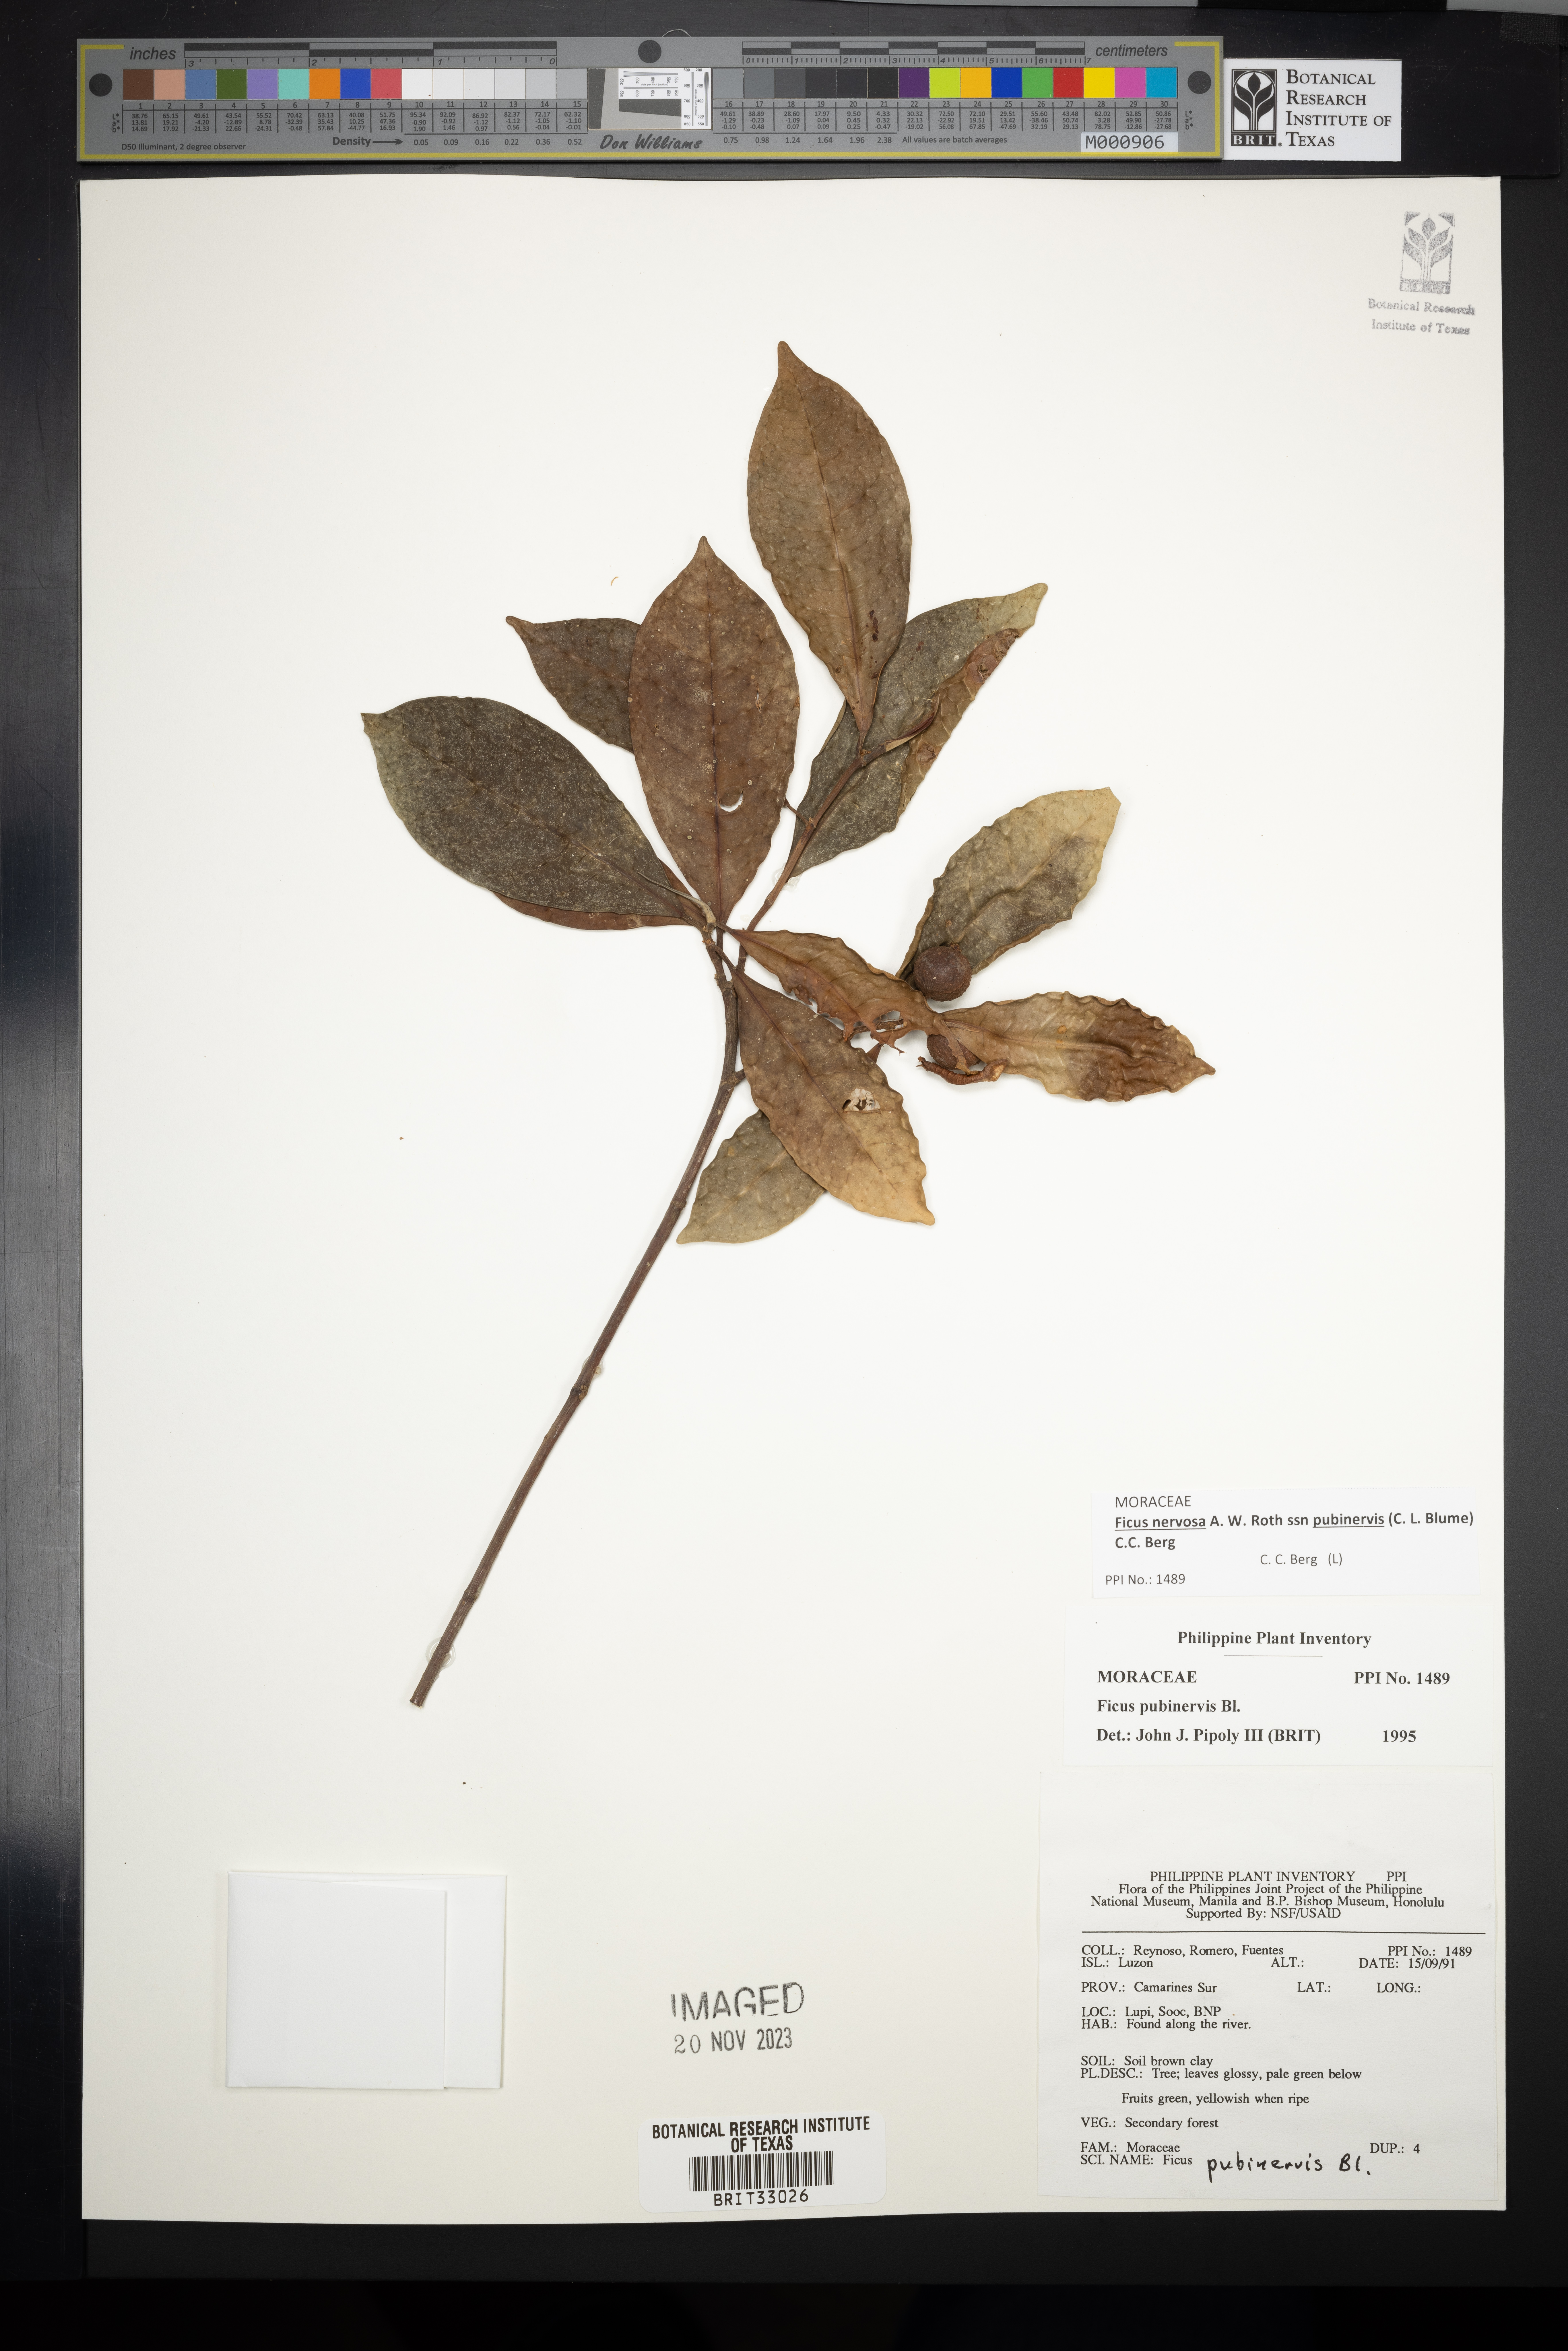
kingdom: Plantae
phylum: Tracheophyta
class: Magnoliopsida
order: Rosales
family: Moraceae
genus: Ficus
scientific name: Ficus nervosa
